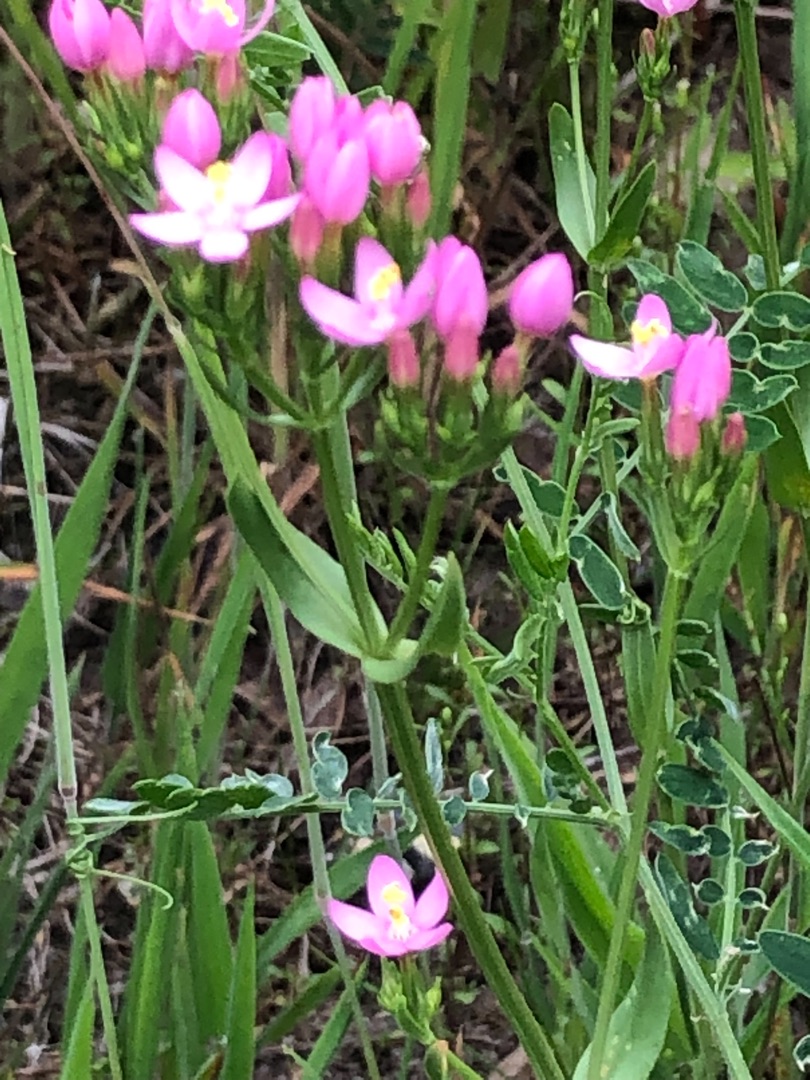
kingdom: Plantae
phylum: Tracheophyta
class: Magnoliopsida
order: Gentianales
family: Gentianaceae
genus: Centaurium
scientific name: Centaurium littorale
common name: Strand-tusindgylden
